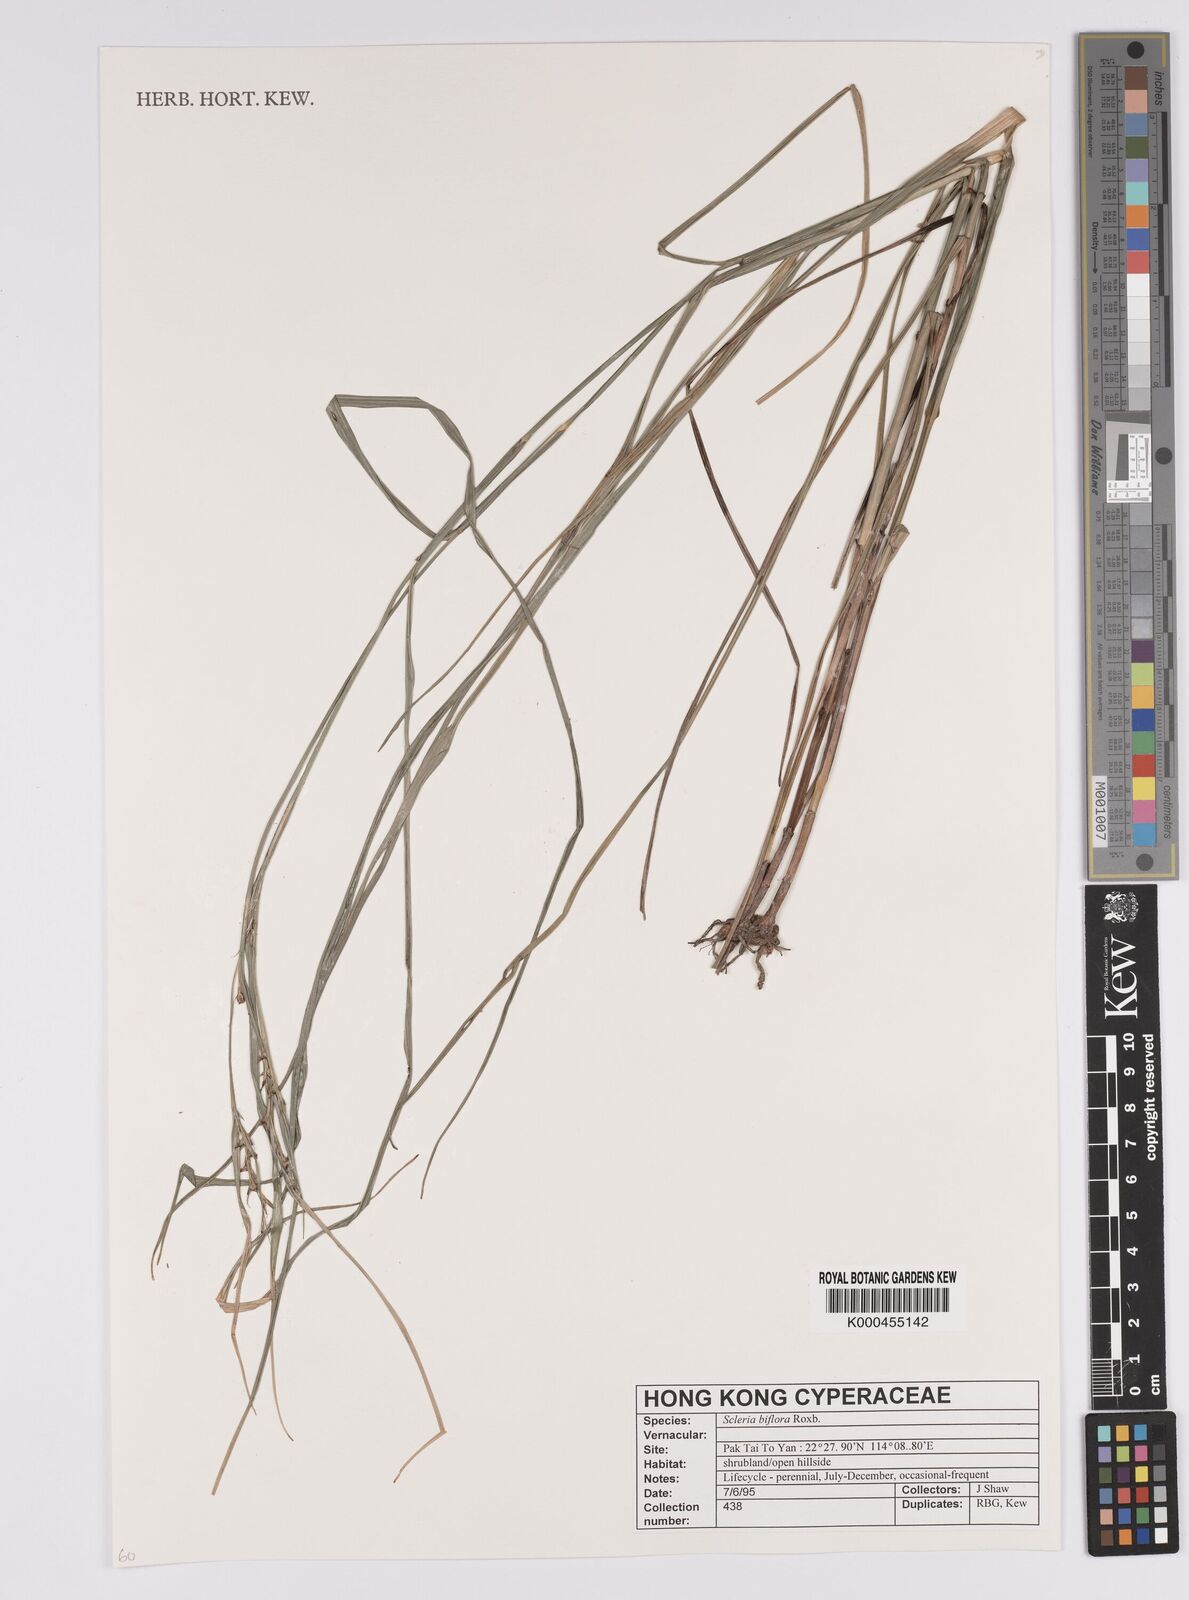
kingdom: Plantae
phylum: Tracheophyta
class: Liliopsida
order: Poales
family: Cyperaceae
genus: Scleria
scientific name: Scleria biflora
